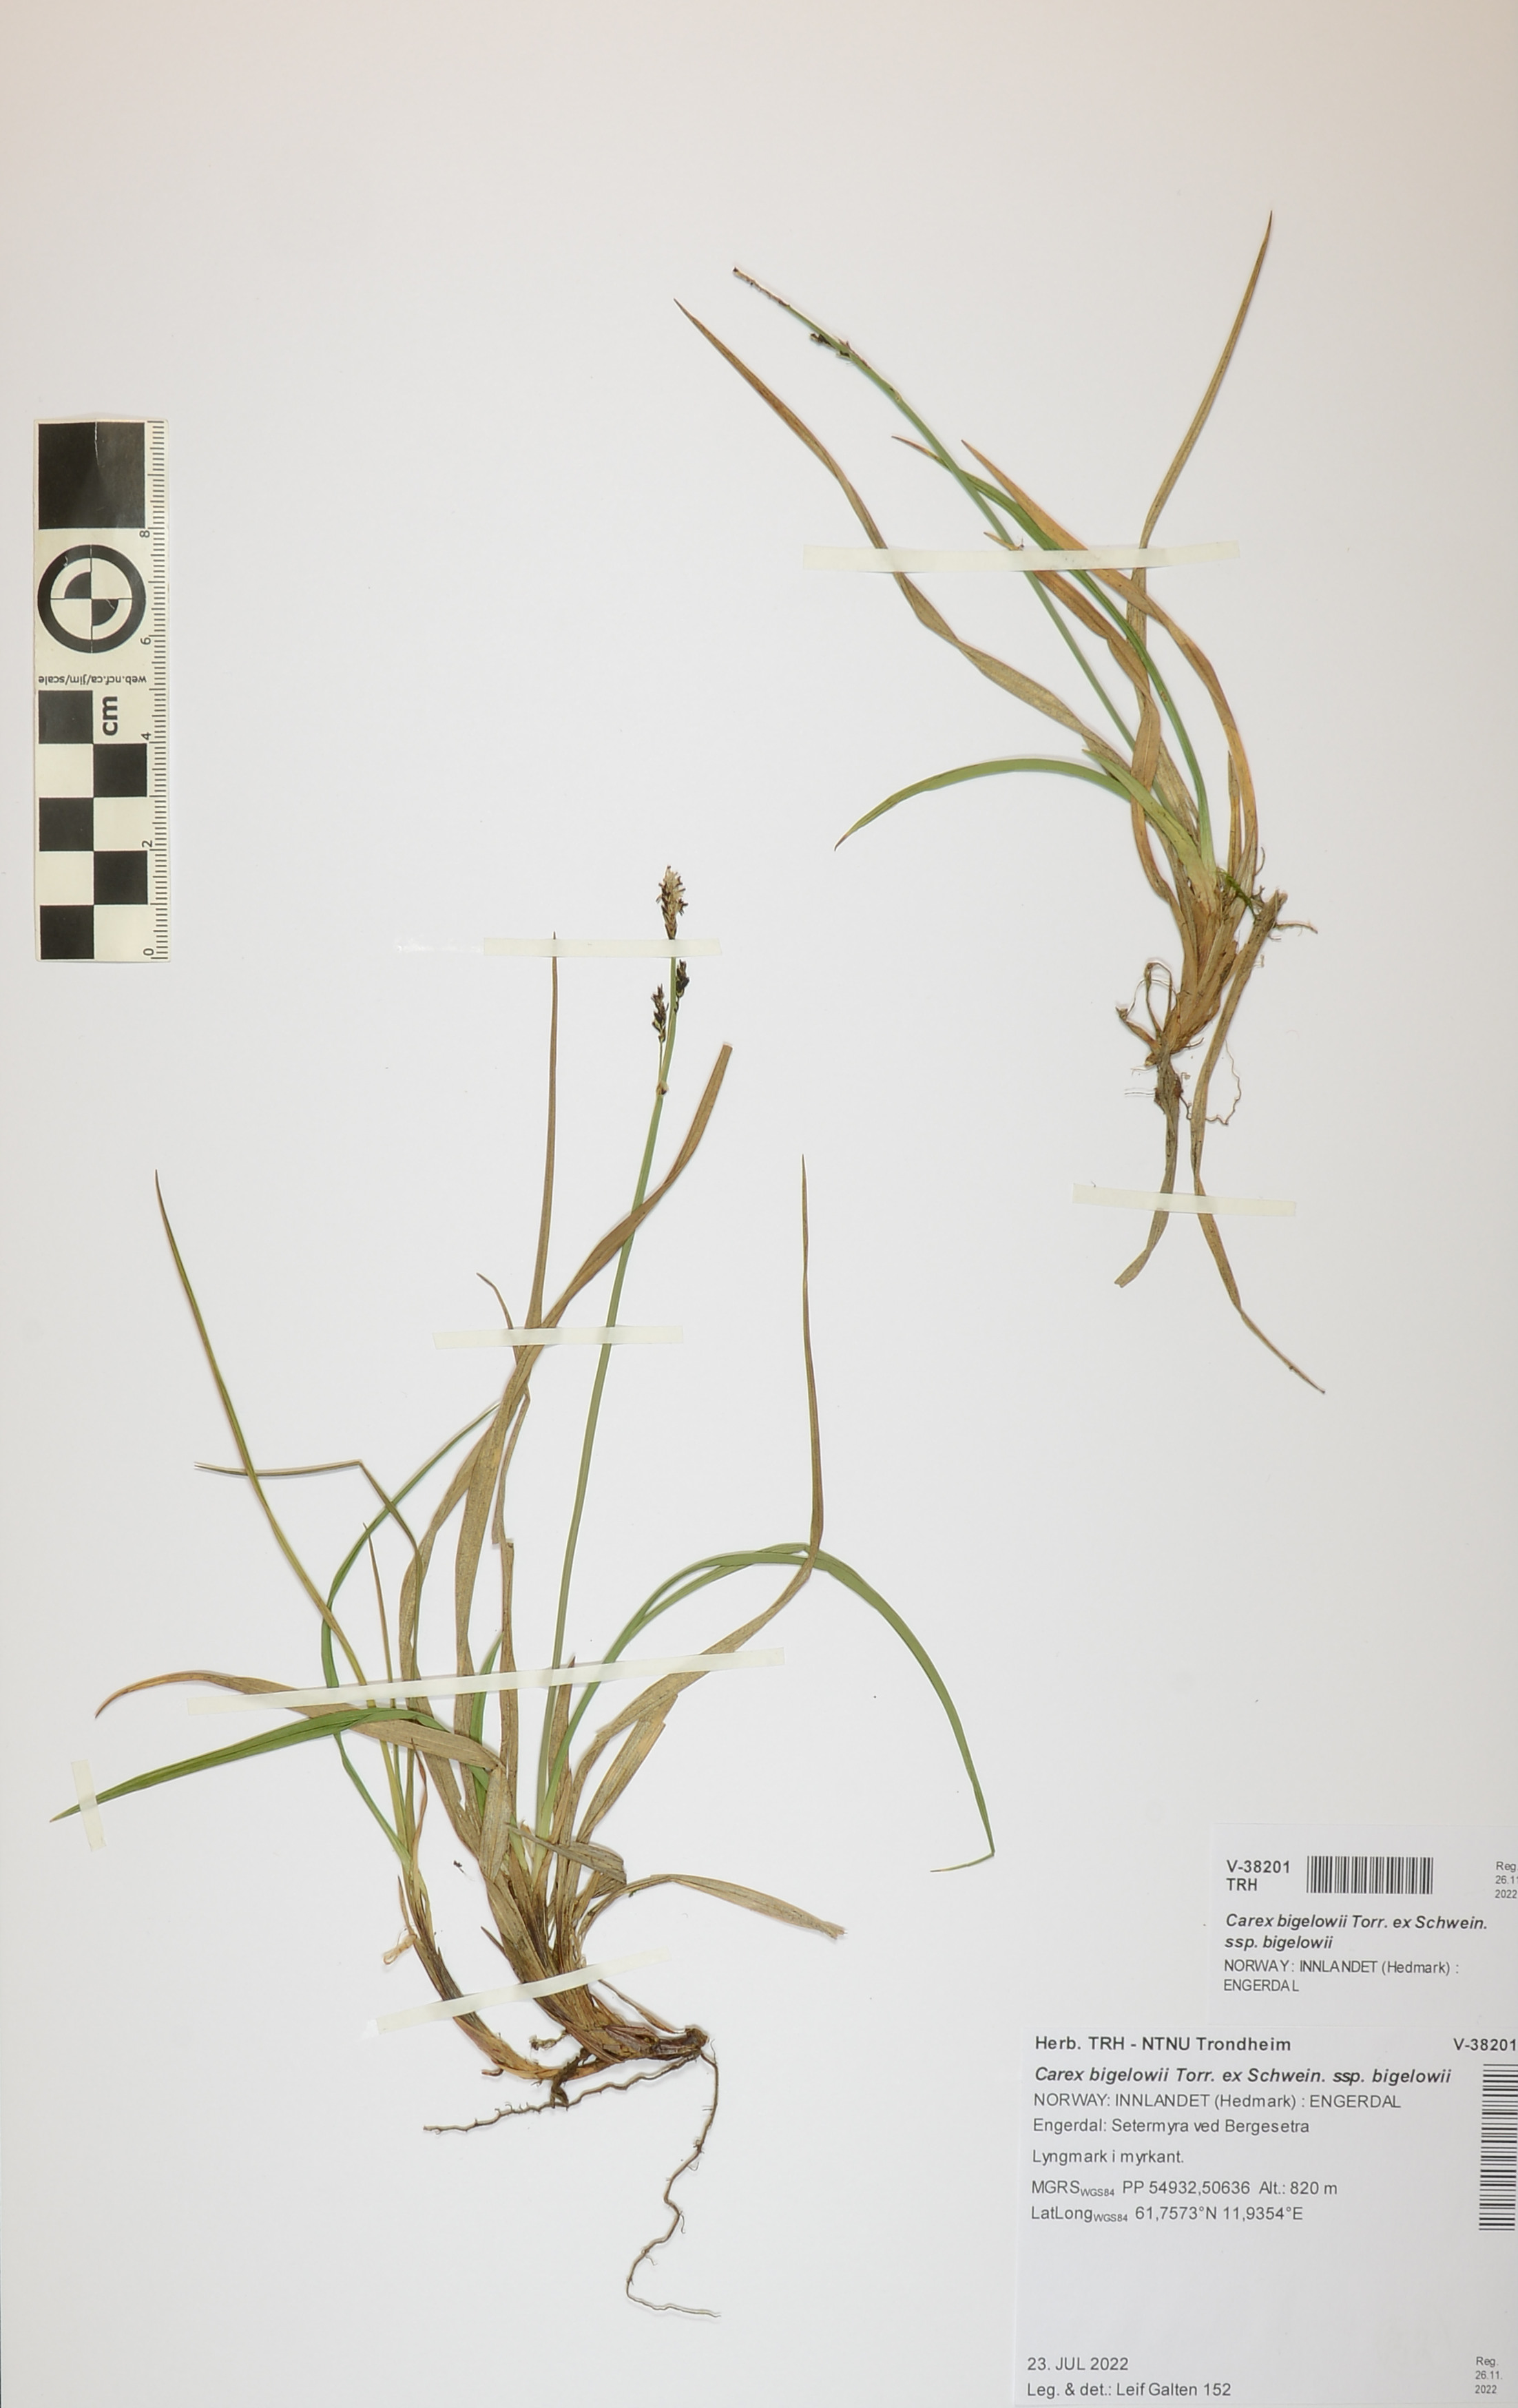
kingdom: Plantae
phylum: Tracheophyta
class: Liliopsida
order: Poales
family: Cyperaceae
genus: Carex
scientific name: Carex bigelowii
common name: Stiff sedge
